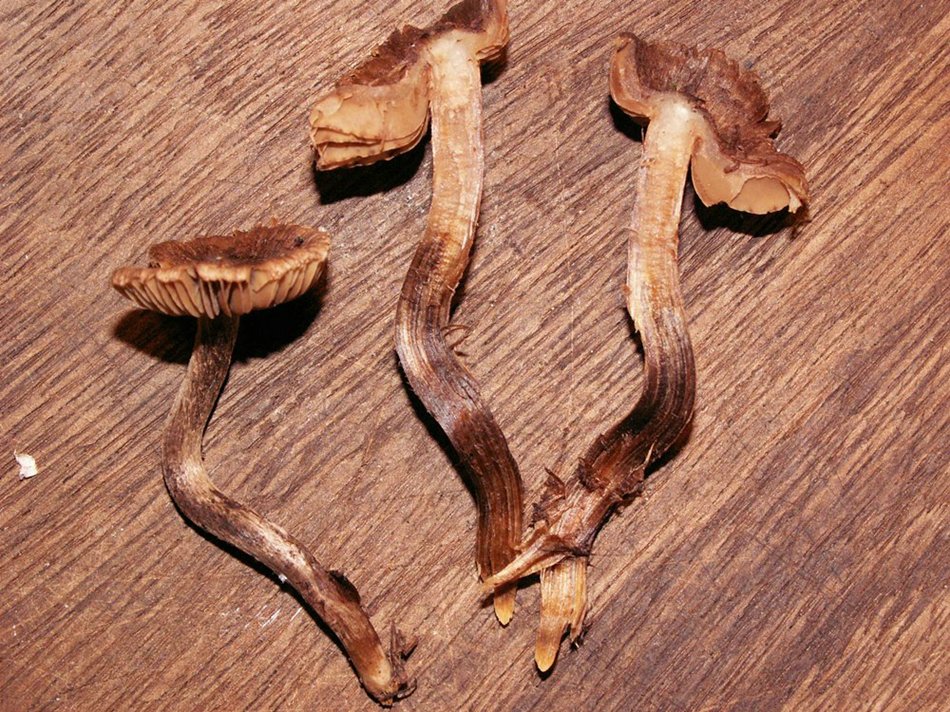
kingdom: Fungi
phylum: Basidiomycota
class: Agaricomycetes
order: Agaricales
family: Inocybaceae
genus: Inocybe
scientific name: Inocybe stellatospora
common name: spidsskællet trævlhat
